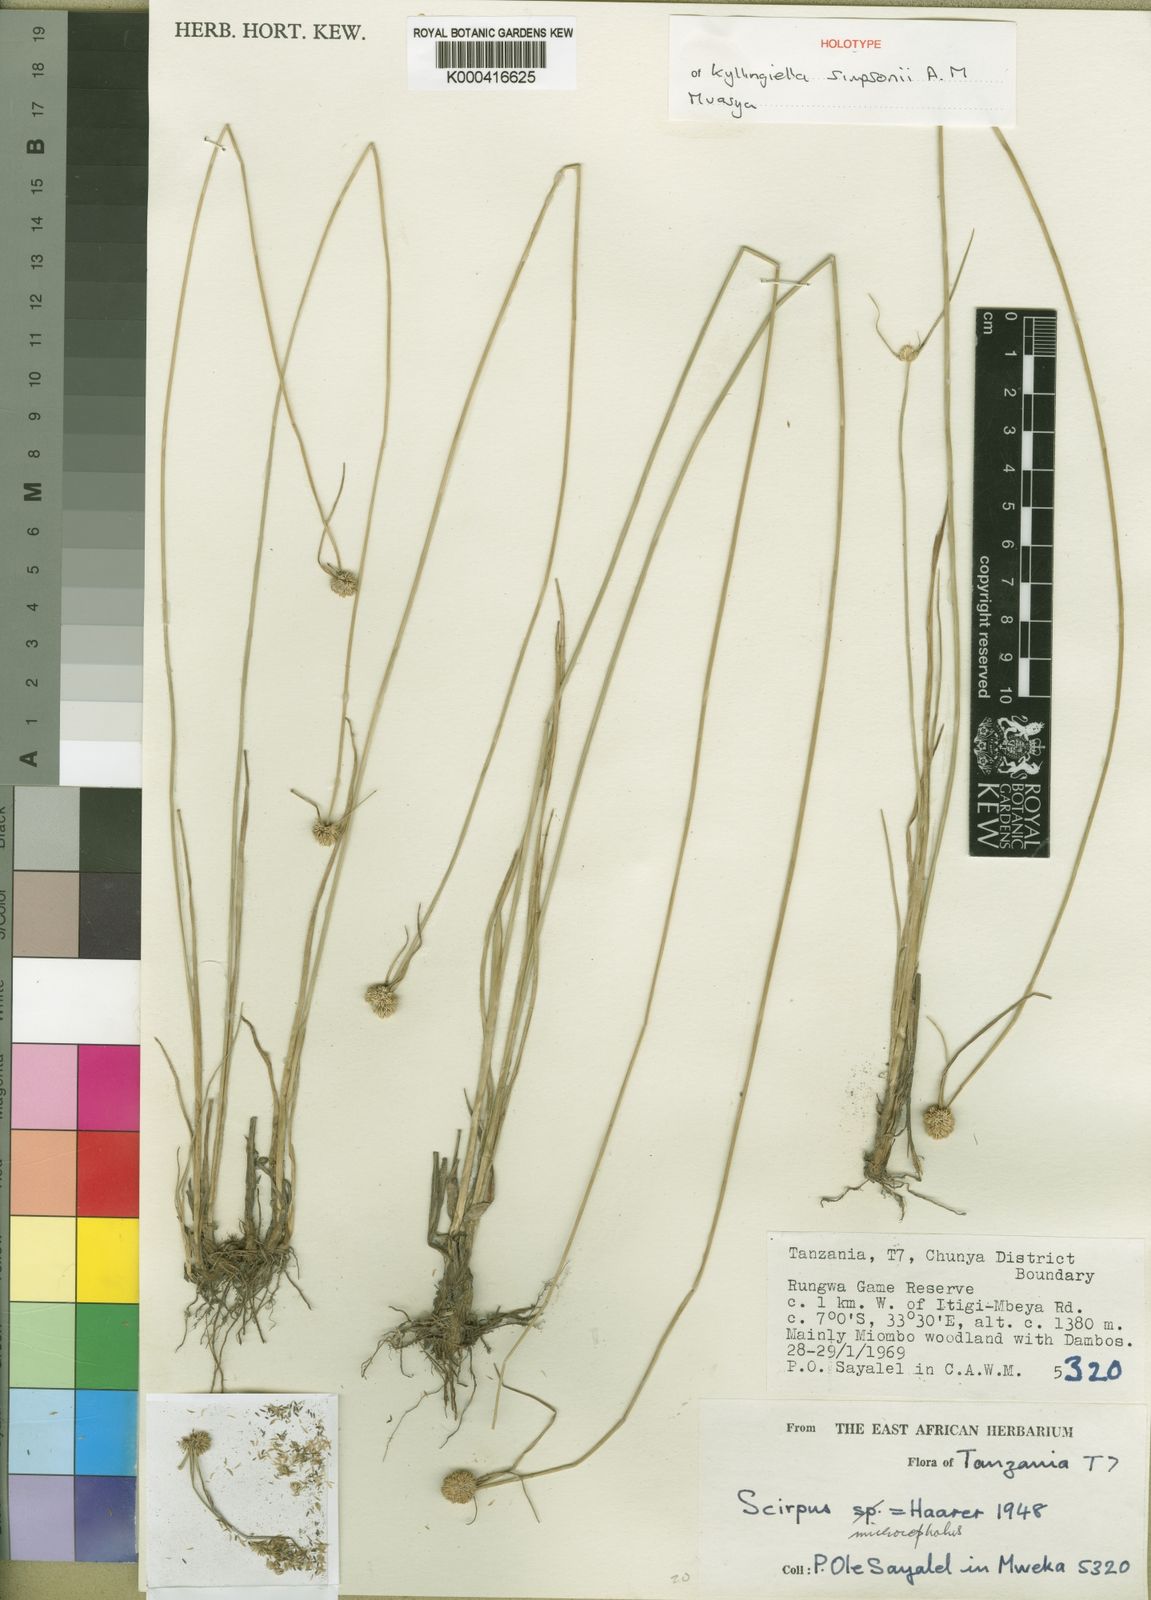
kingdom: Plantae
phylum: Tracheophyta
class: Liliopsida
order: Poales
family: Cyperaceae
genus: Cyperus
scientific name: Cyperus simpsonii
